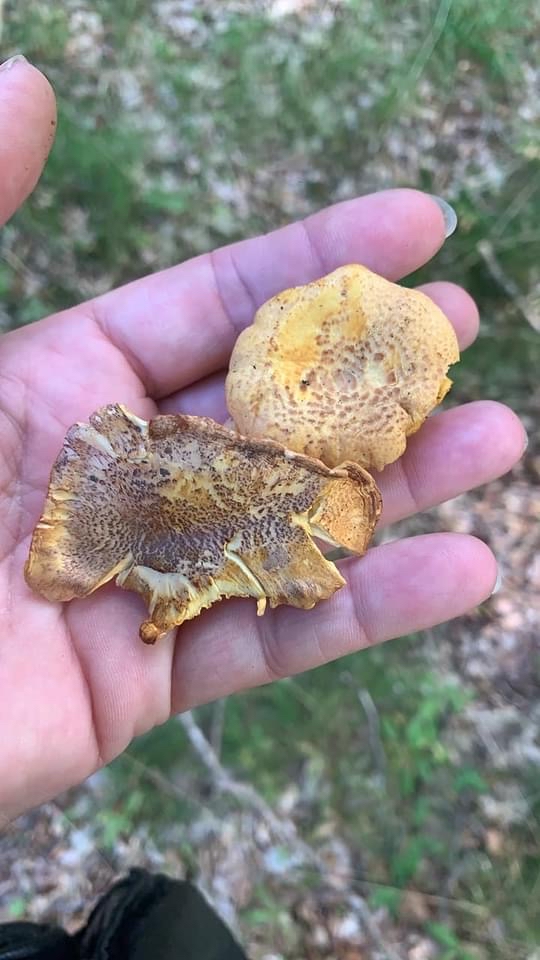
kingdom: Fungi
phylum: Basidiomycota
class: Agaricomycetes
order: Cantharellales
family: Hydnaceae
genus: Cantharellus
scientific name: Cantharellus amethysteus
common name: ametyst-kantarel
